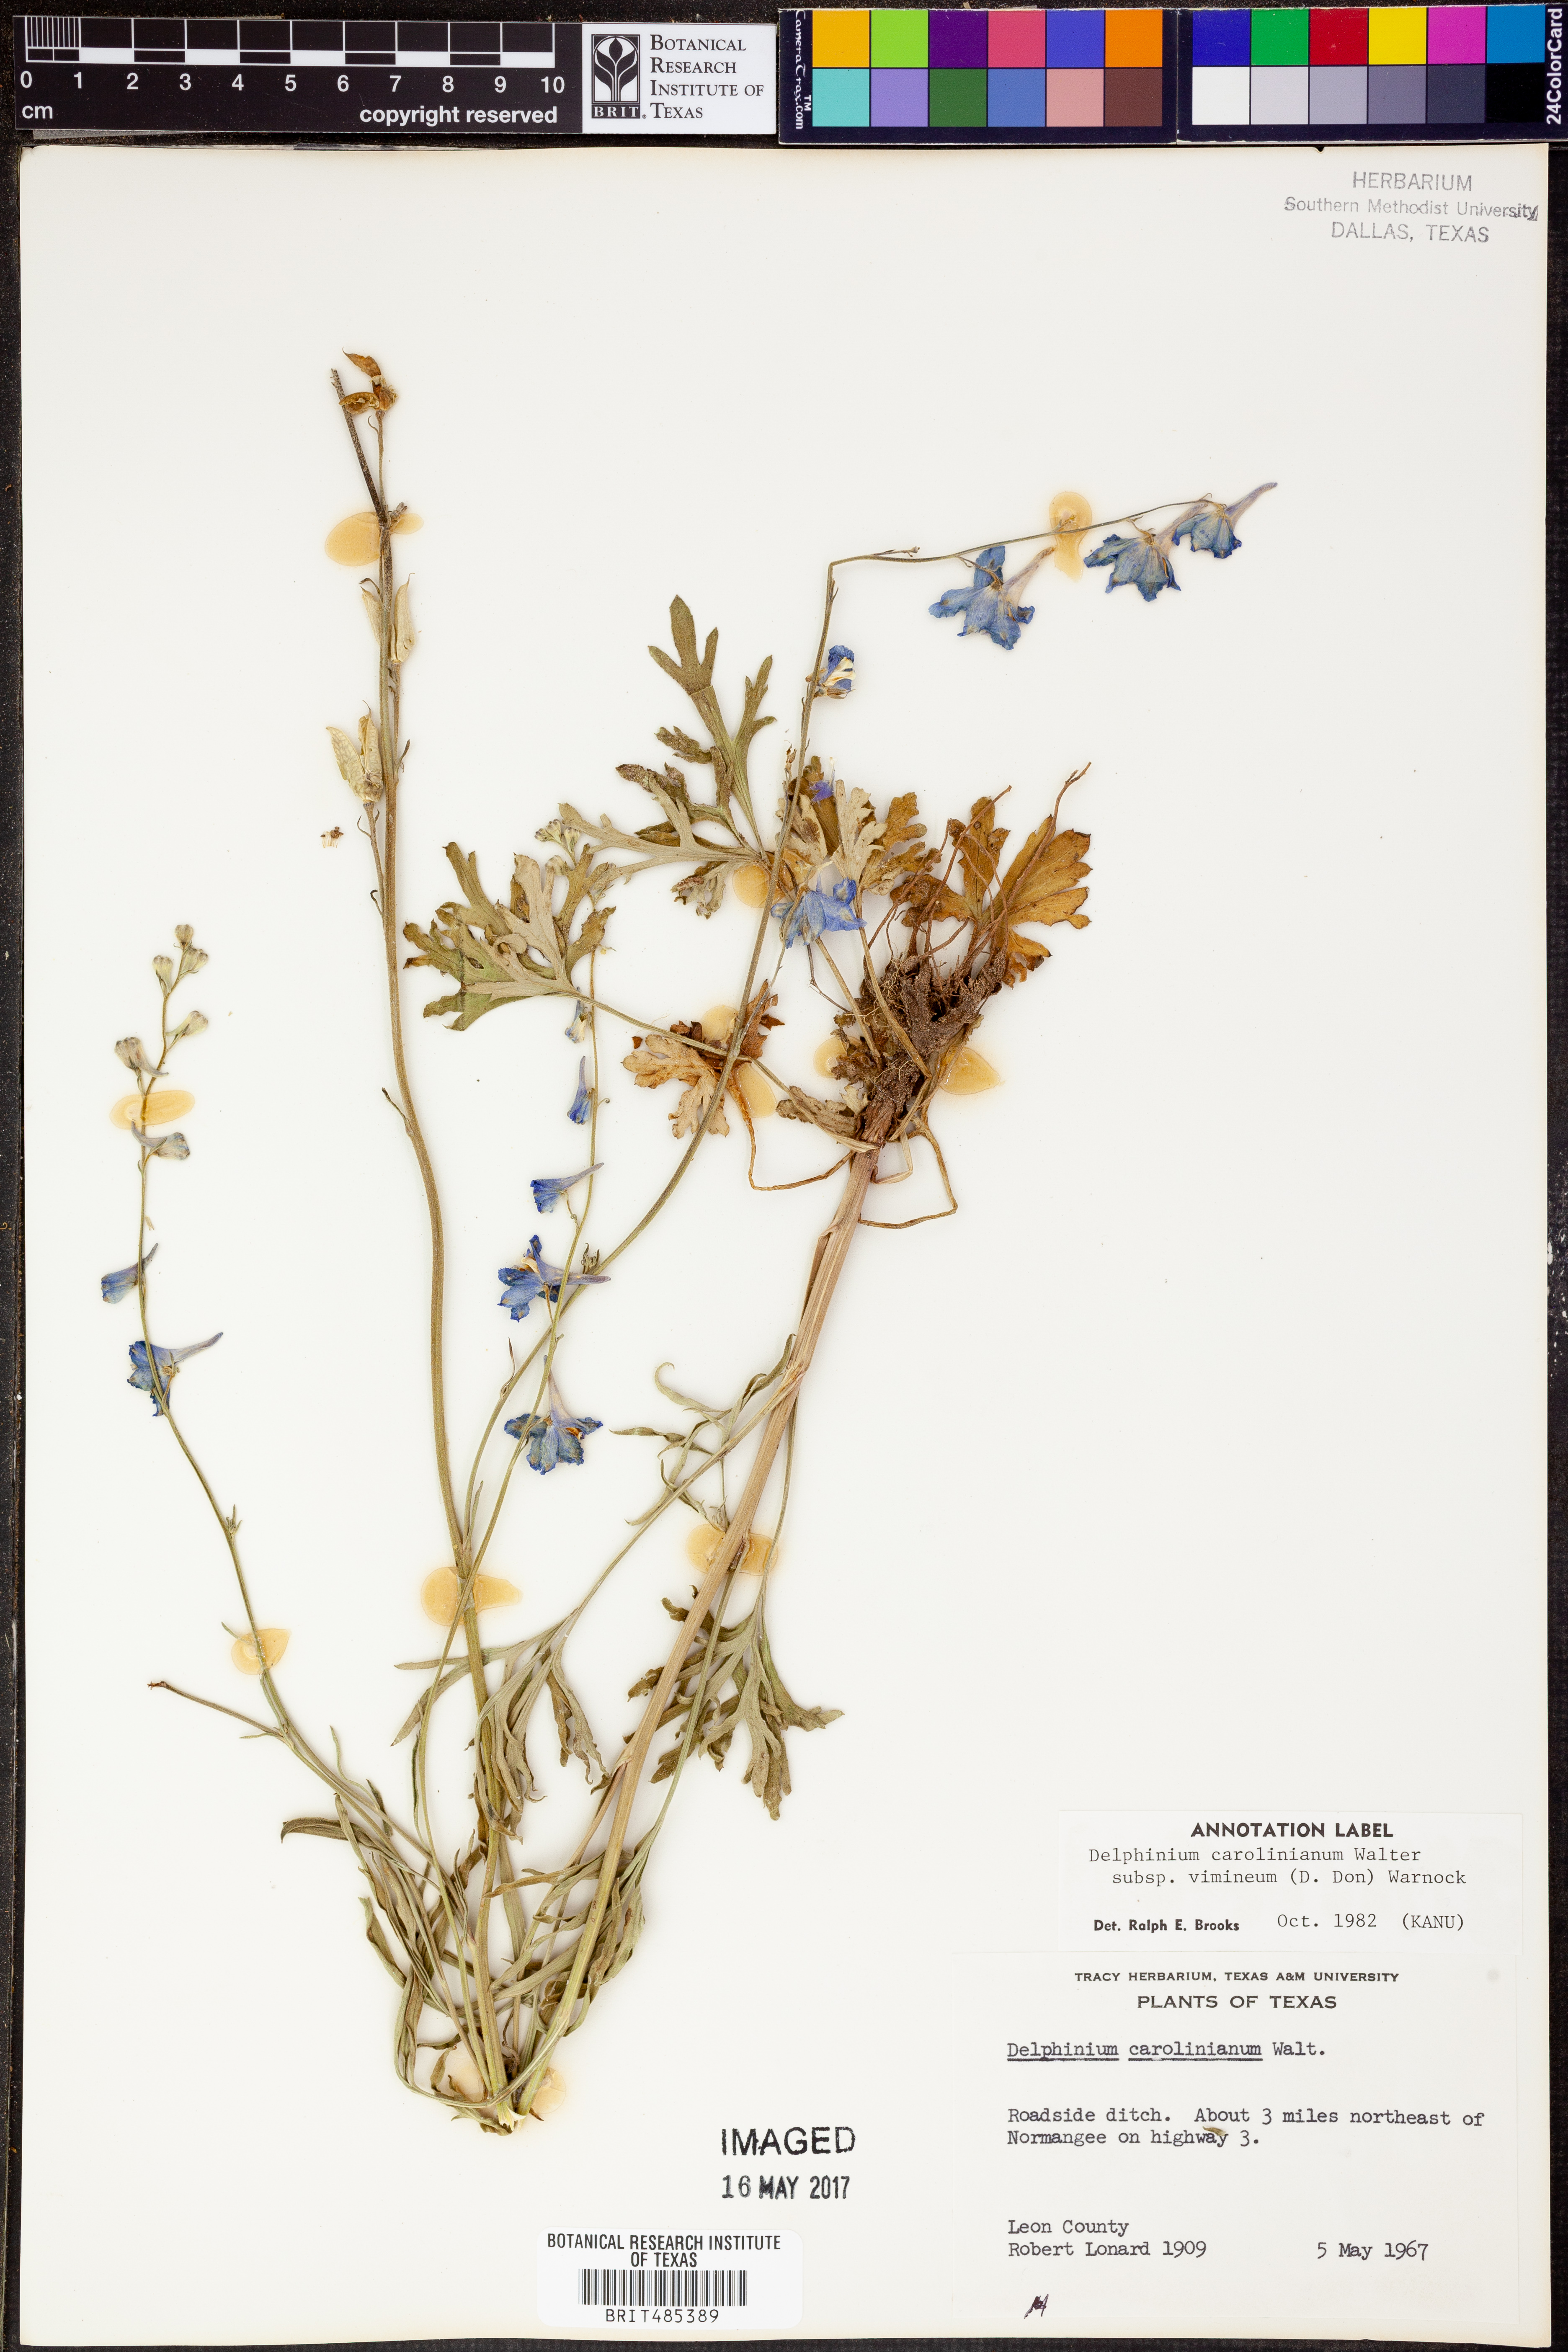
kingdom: Plantae
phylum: Tracheophyta
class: Magnoliopsida
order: Ranunculales
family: Ranunculaceae
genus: Delphinium
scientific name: Delphinium carolinianum
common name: Carolina larkspur
